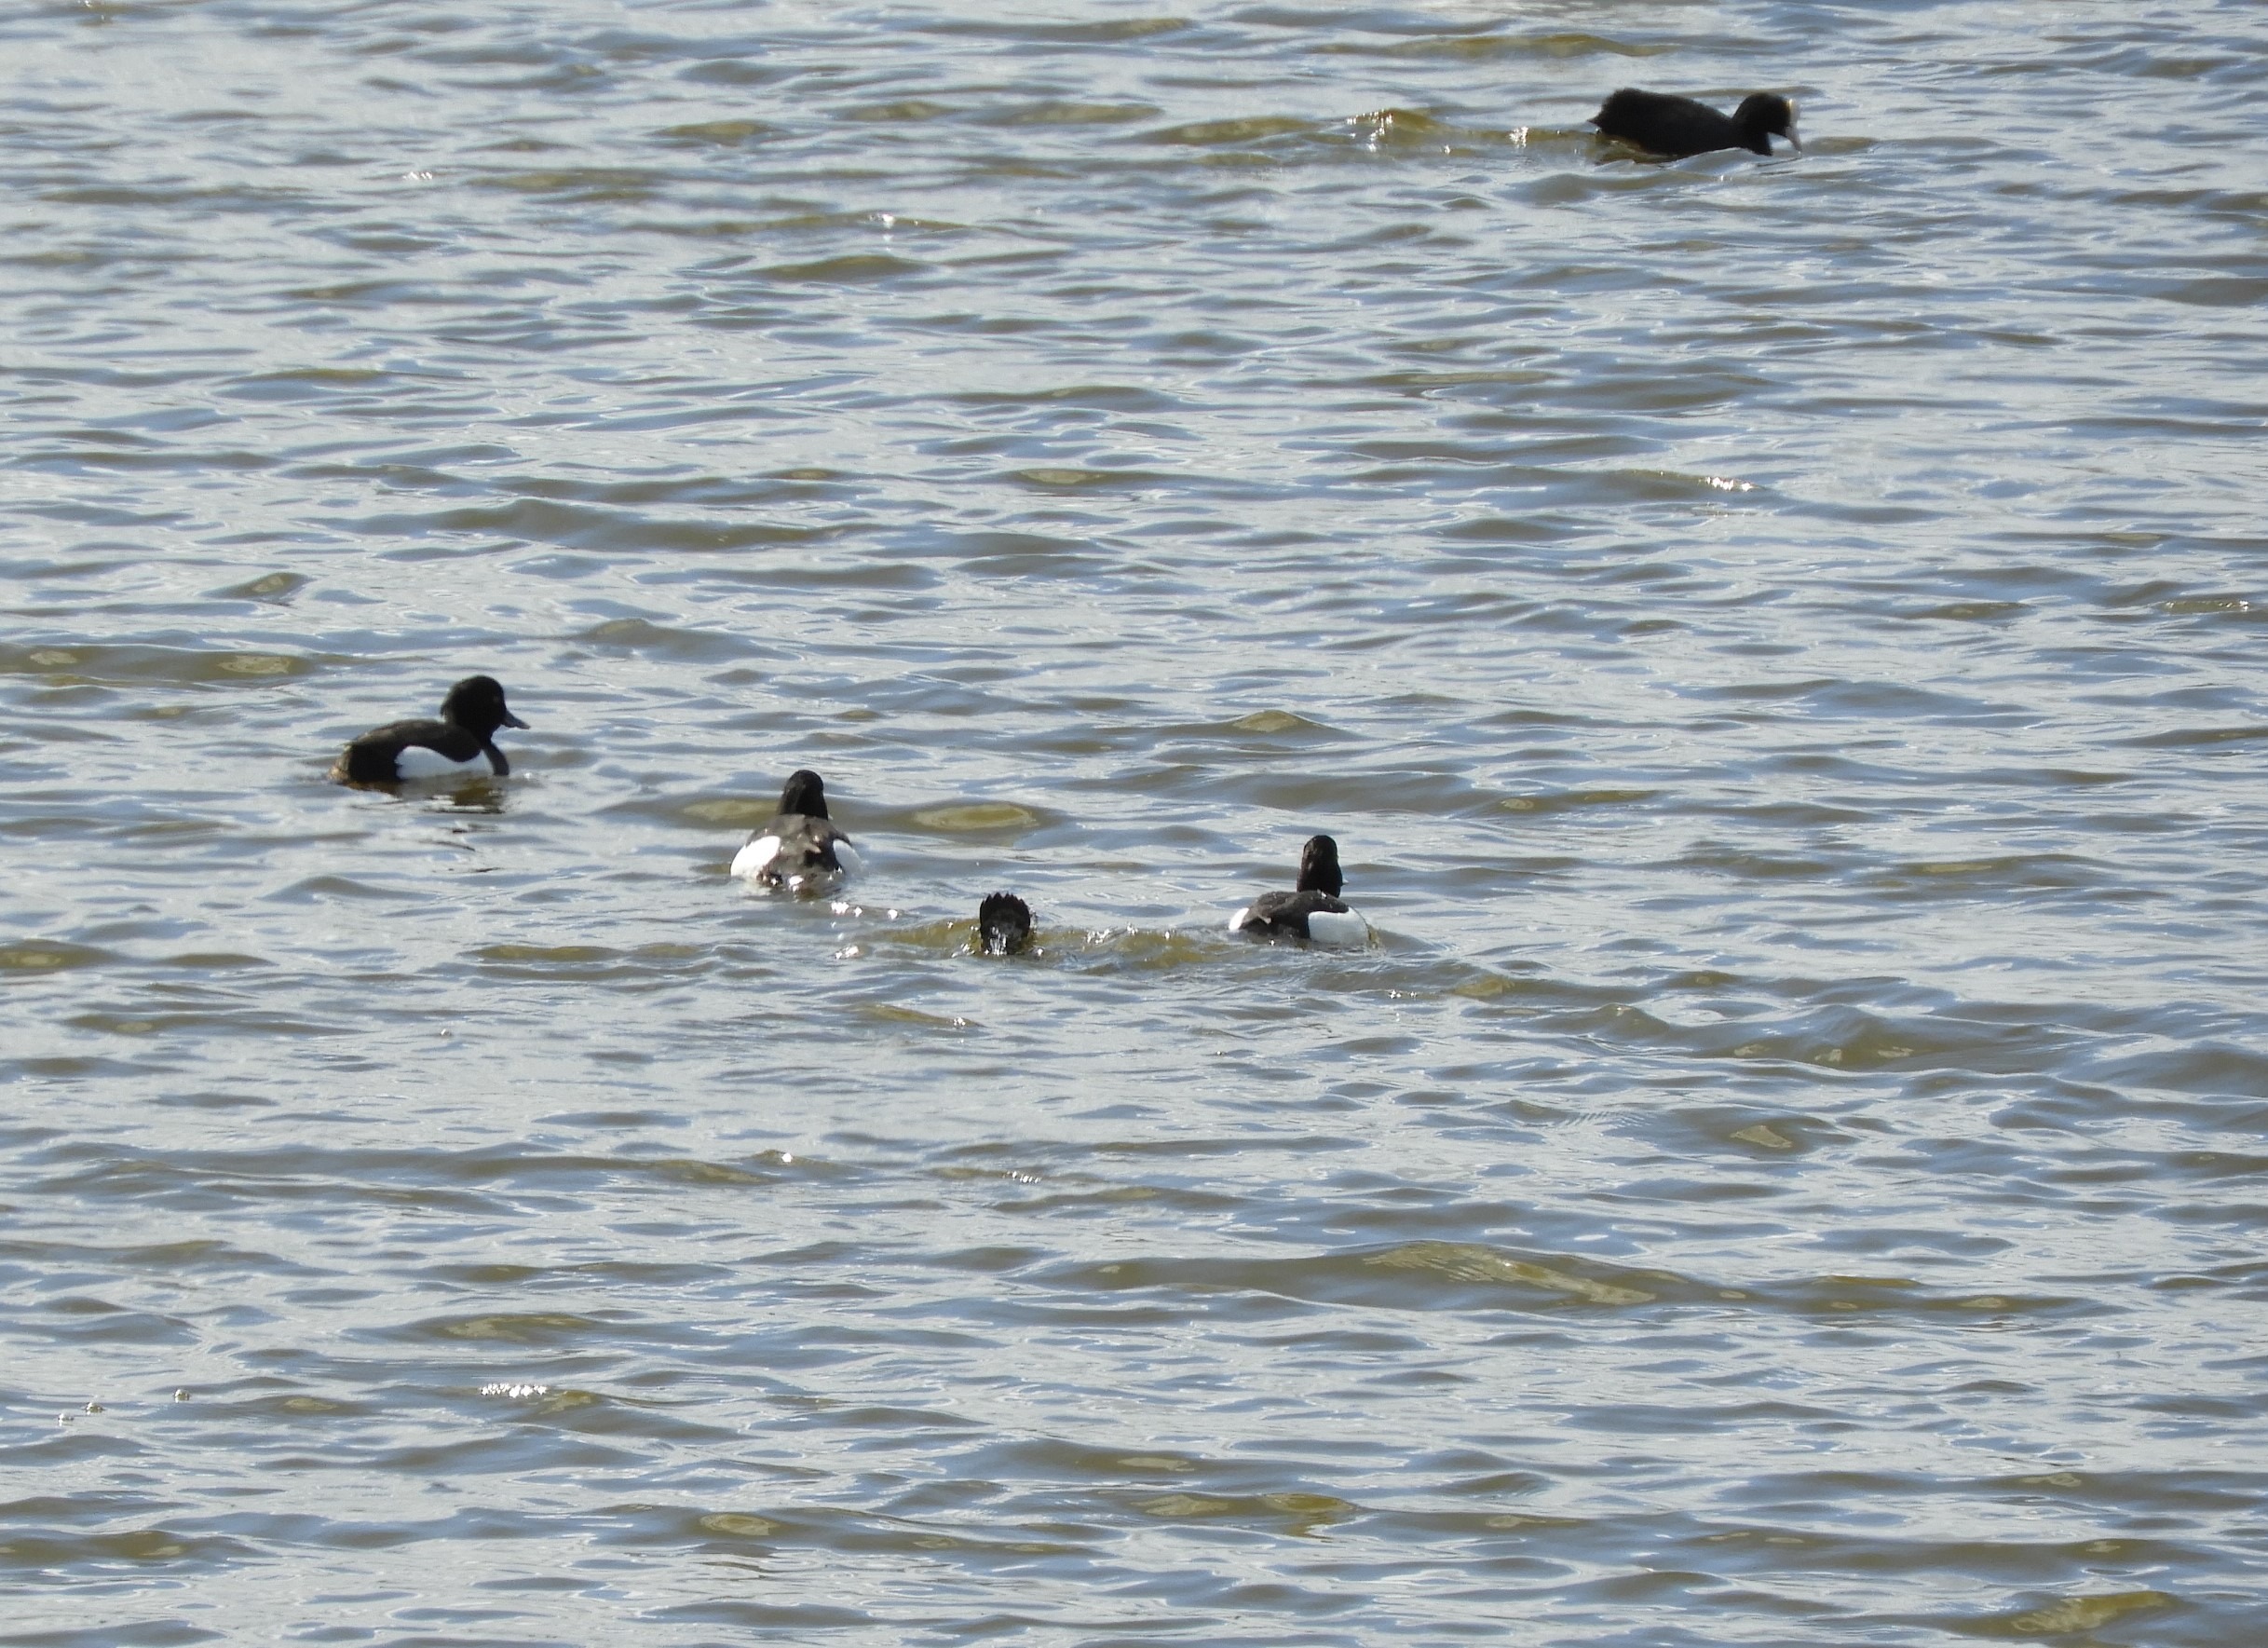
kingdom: Animalia
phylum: Chordata
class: Aves
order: Anseriformes
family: Anatidae
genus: Aythya
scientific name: Aythya fuligula
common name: Troldand
